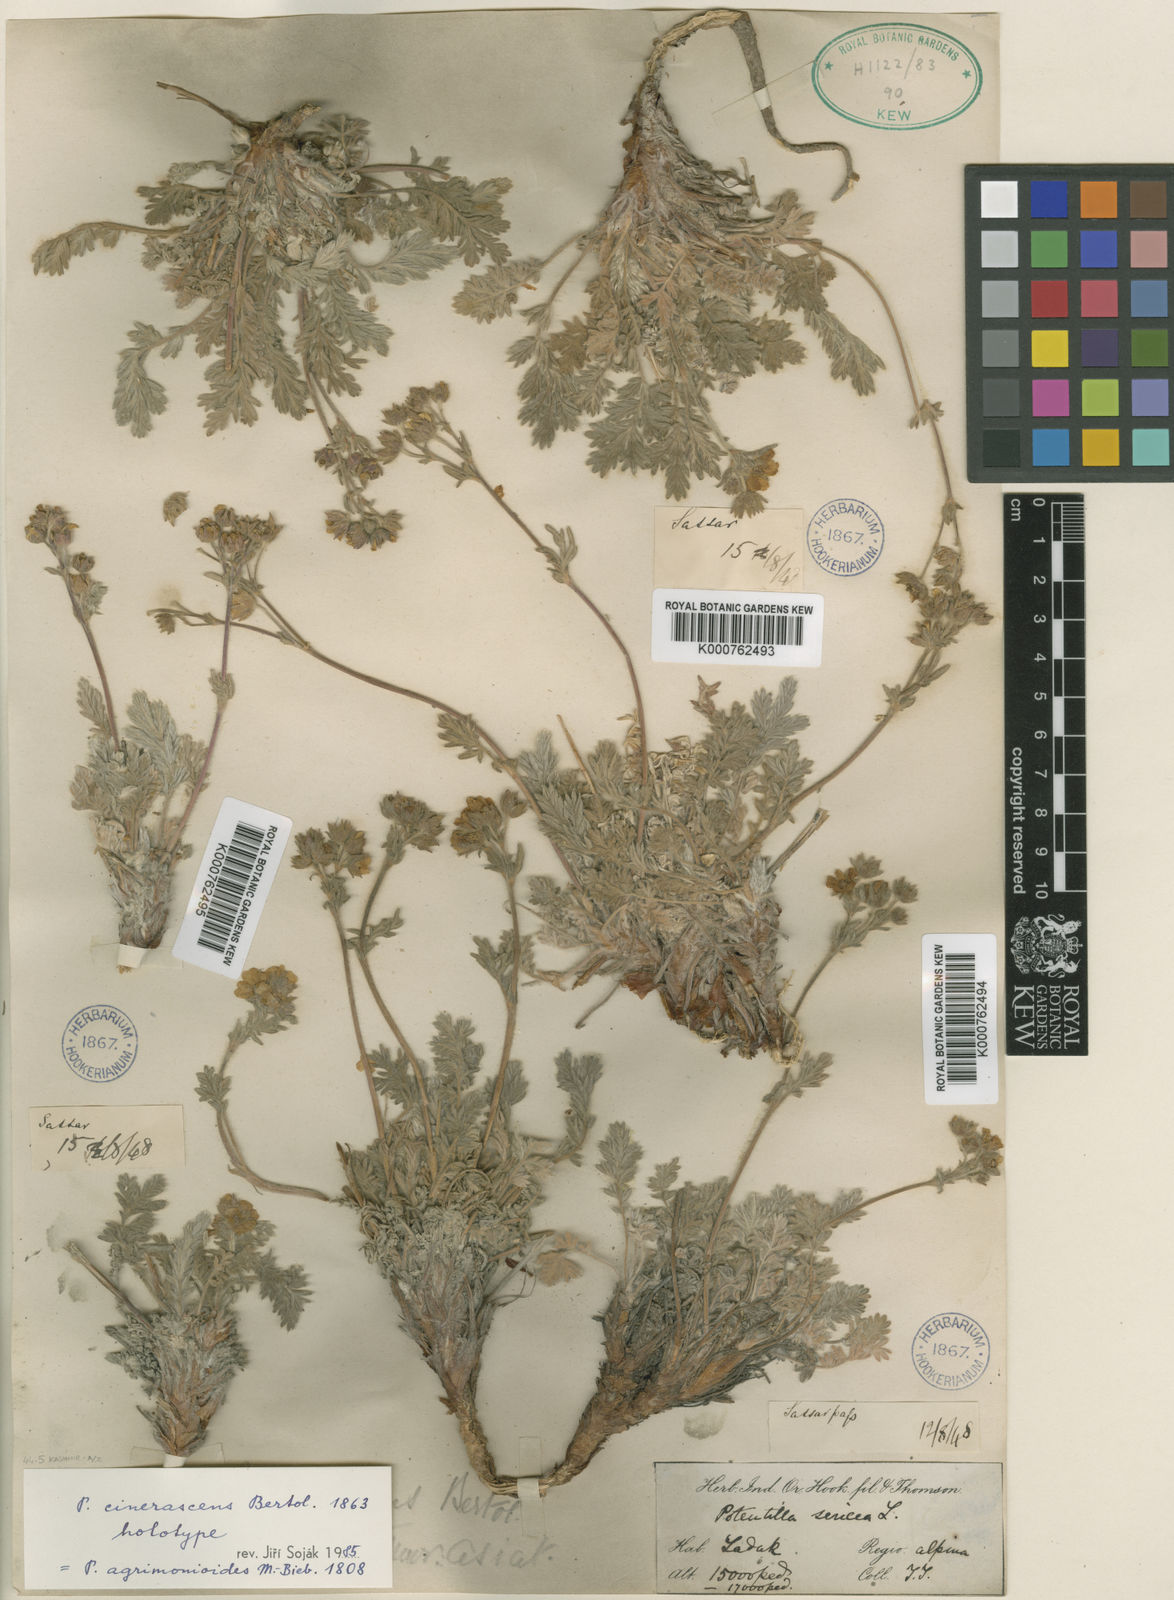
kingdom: Plantae
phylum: Tracheophyta
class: Magnoliopsida
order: Rosales
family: Rosaceae
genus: Potentilla
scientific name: Potentilla
